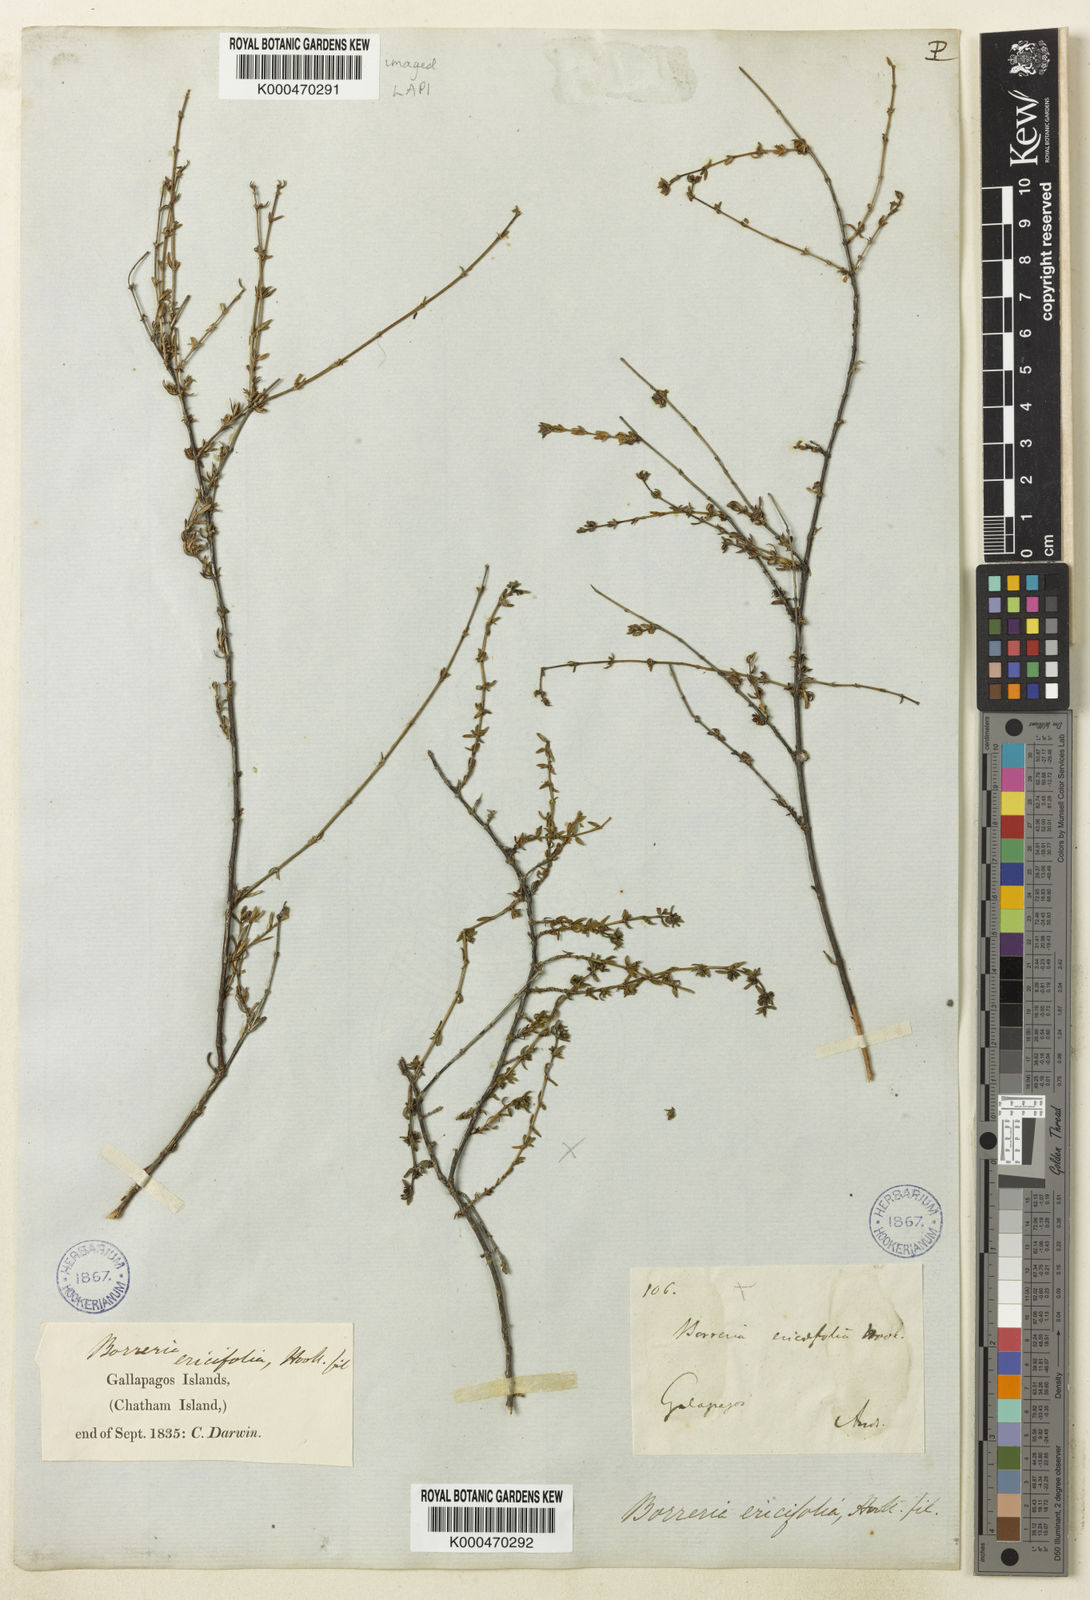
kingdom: Plantae
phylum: Tracheophyta
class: Magnoliopsida
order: Gentianales
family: Rubiaceae
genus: Spermacoce
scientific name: Spermacoce divaricata
